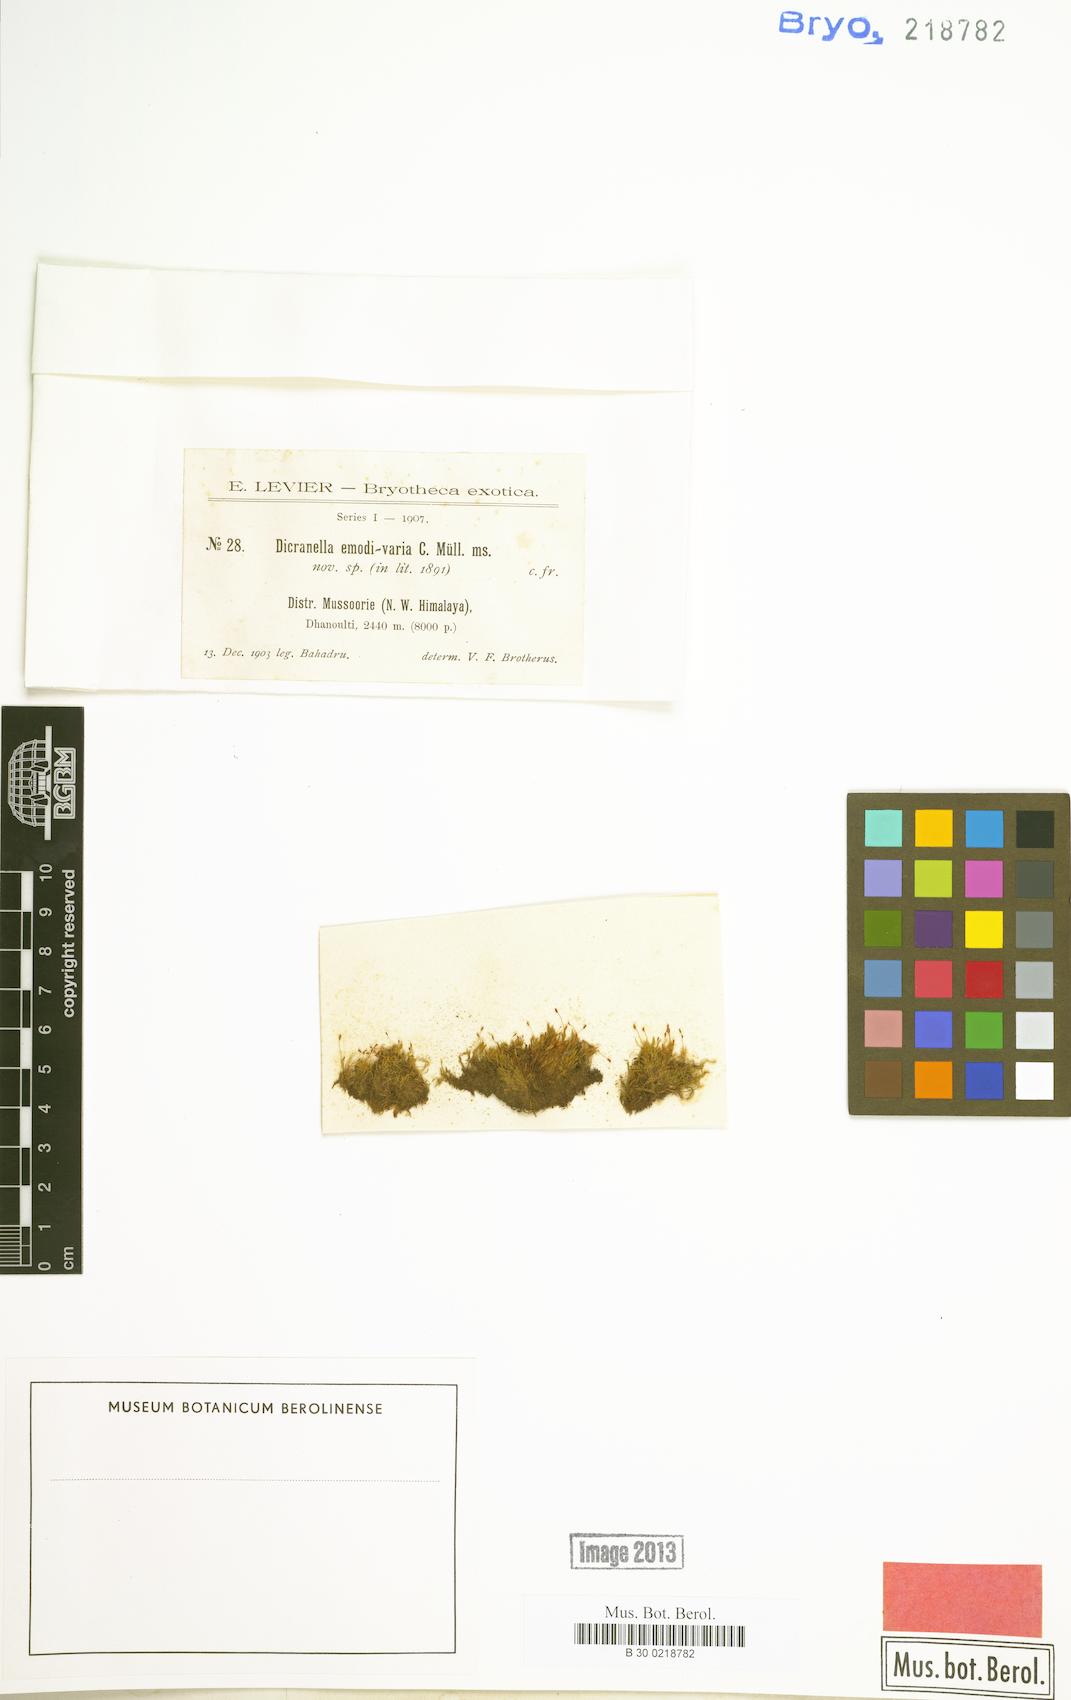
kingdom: Plantae
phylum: Bryophyta
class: Bryopsida
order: Dicranales
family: Dicranellaceae
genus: Dicranella
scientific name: Dicranella emodi-varia
